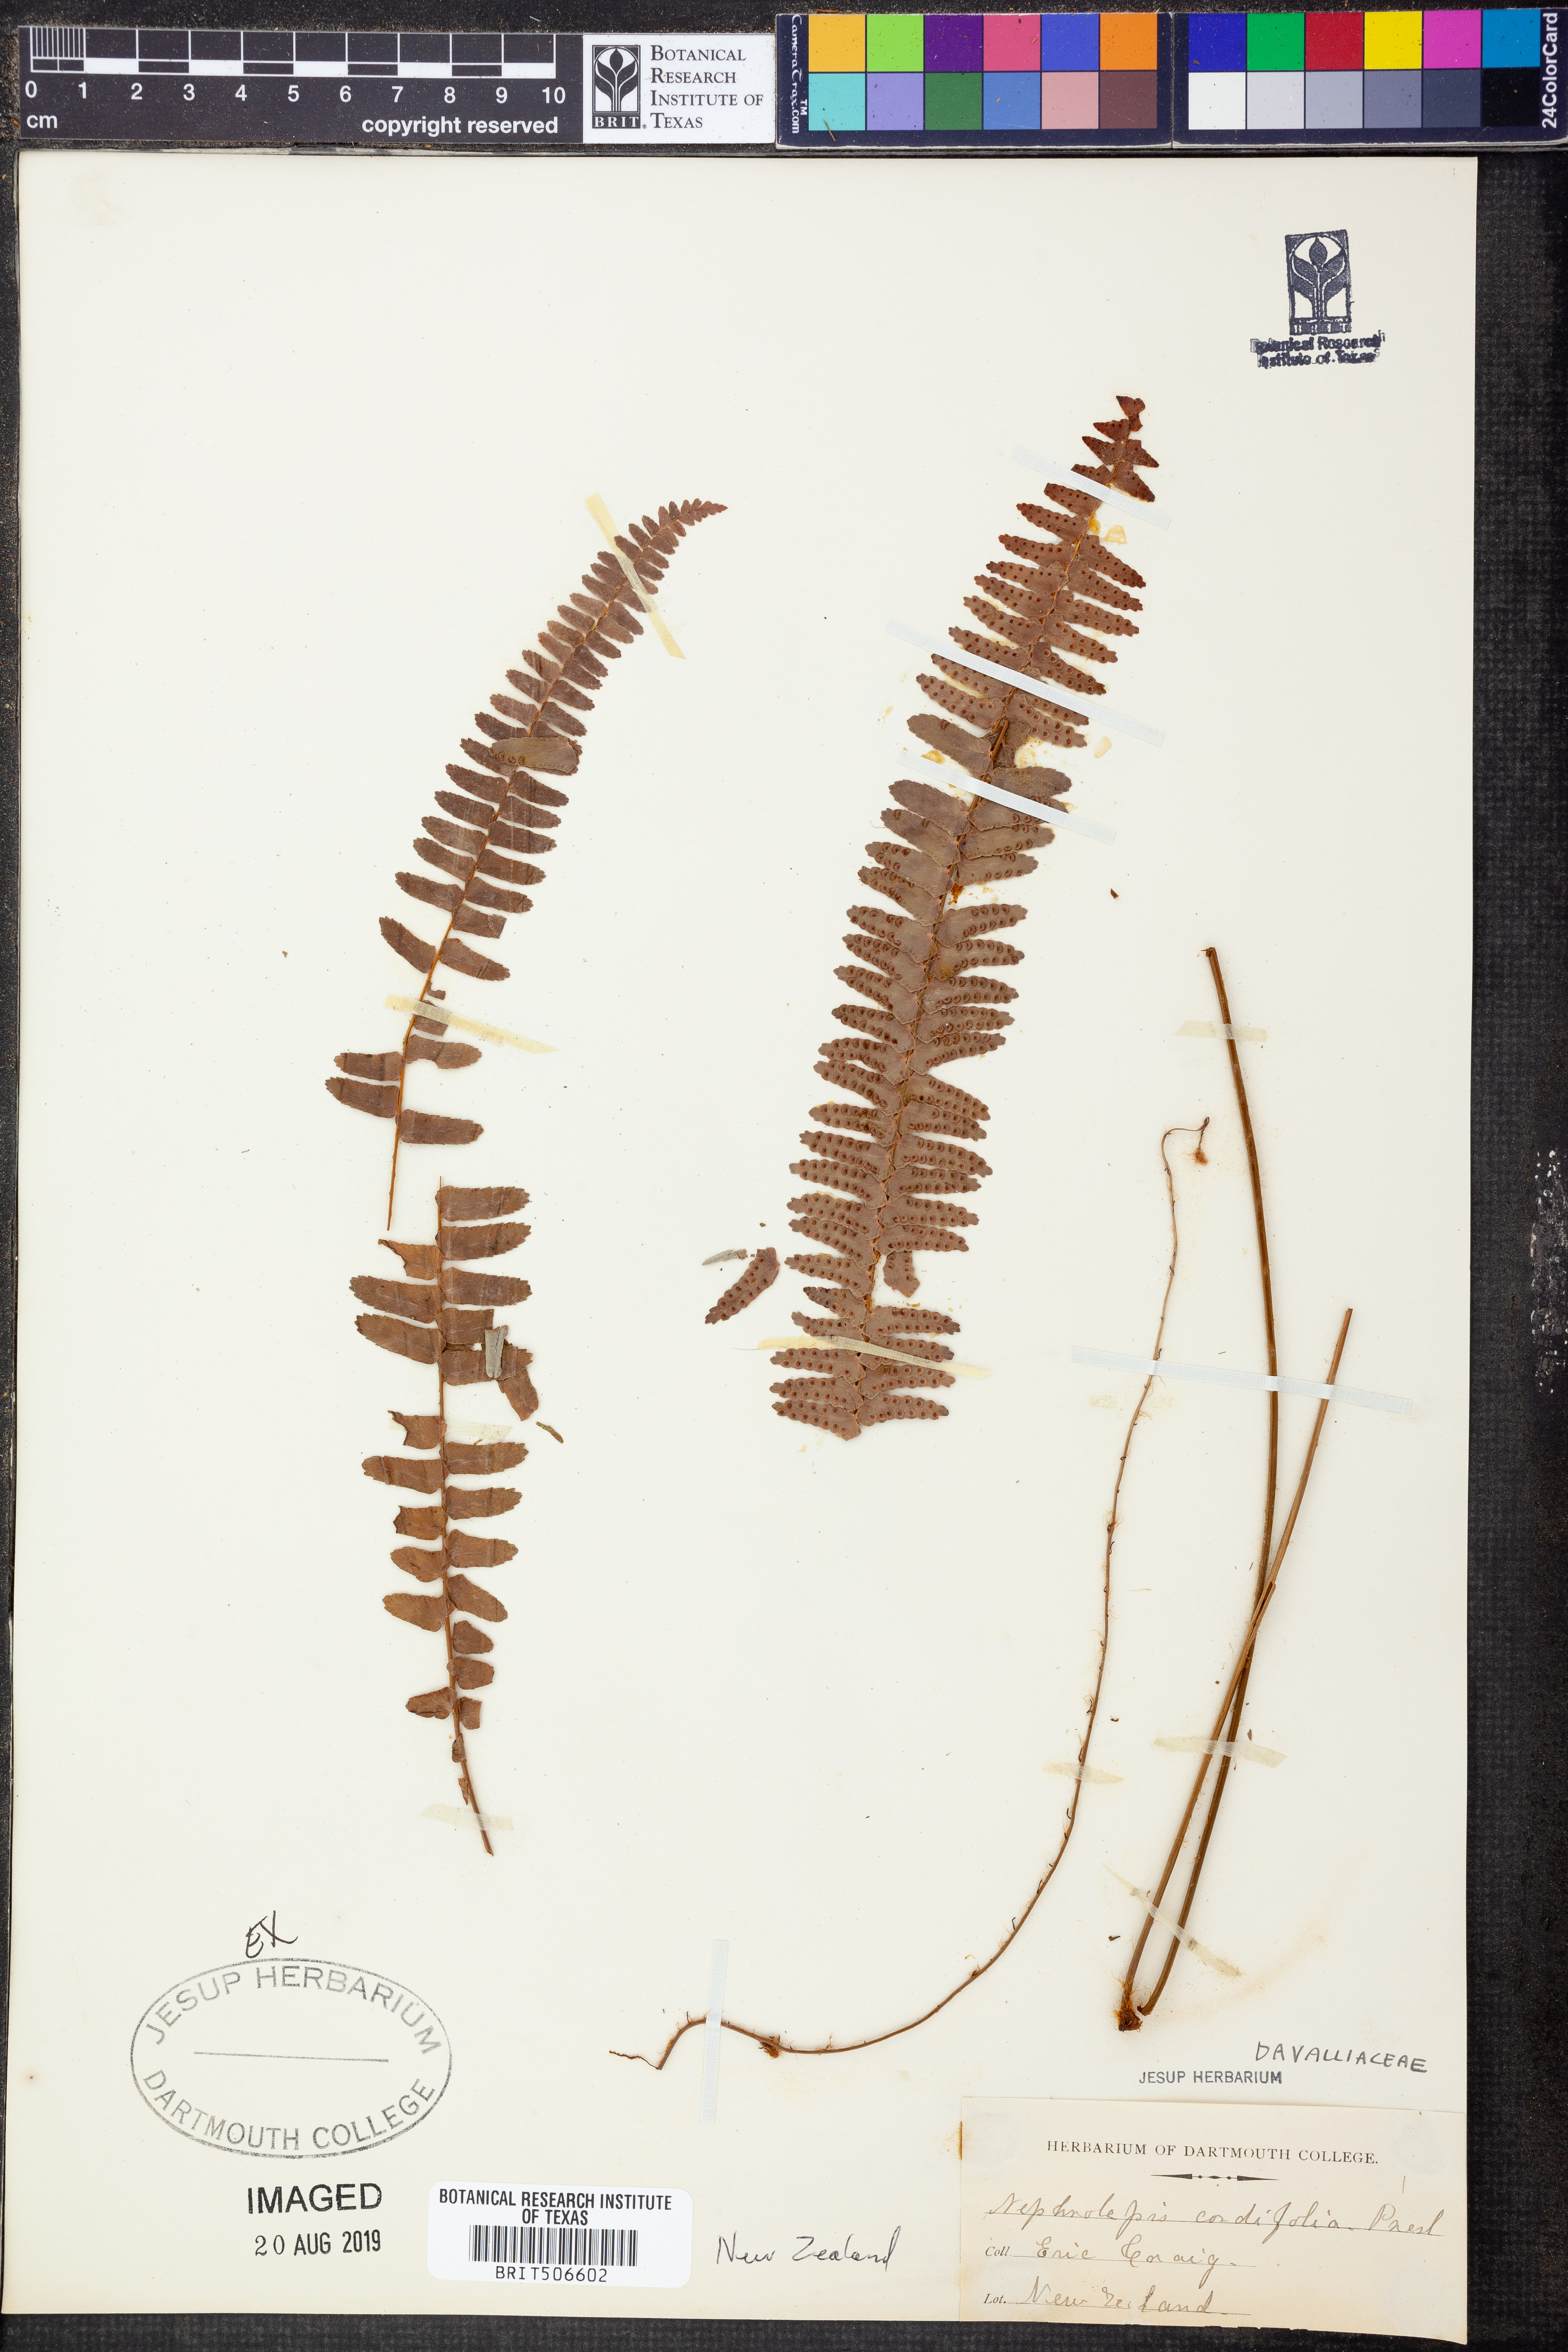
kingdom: Plantae
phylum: Tracheophyta
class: Polypodiopsida
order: Polypodiales
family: Nephrolepidaceae
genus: Nephrolepis
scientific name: Nephrolepis cordifolia
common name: Narrow swordfern
